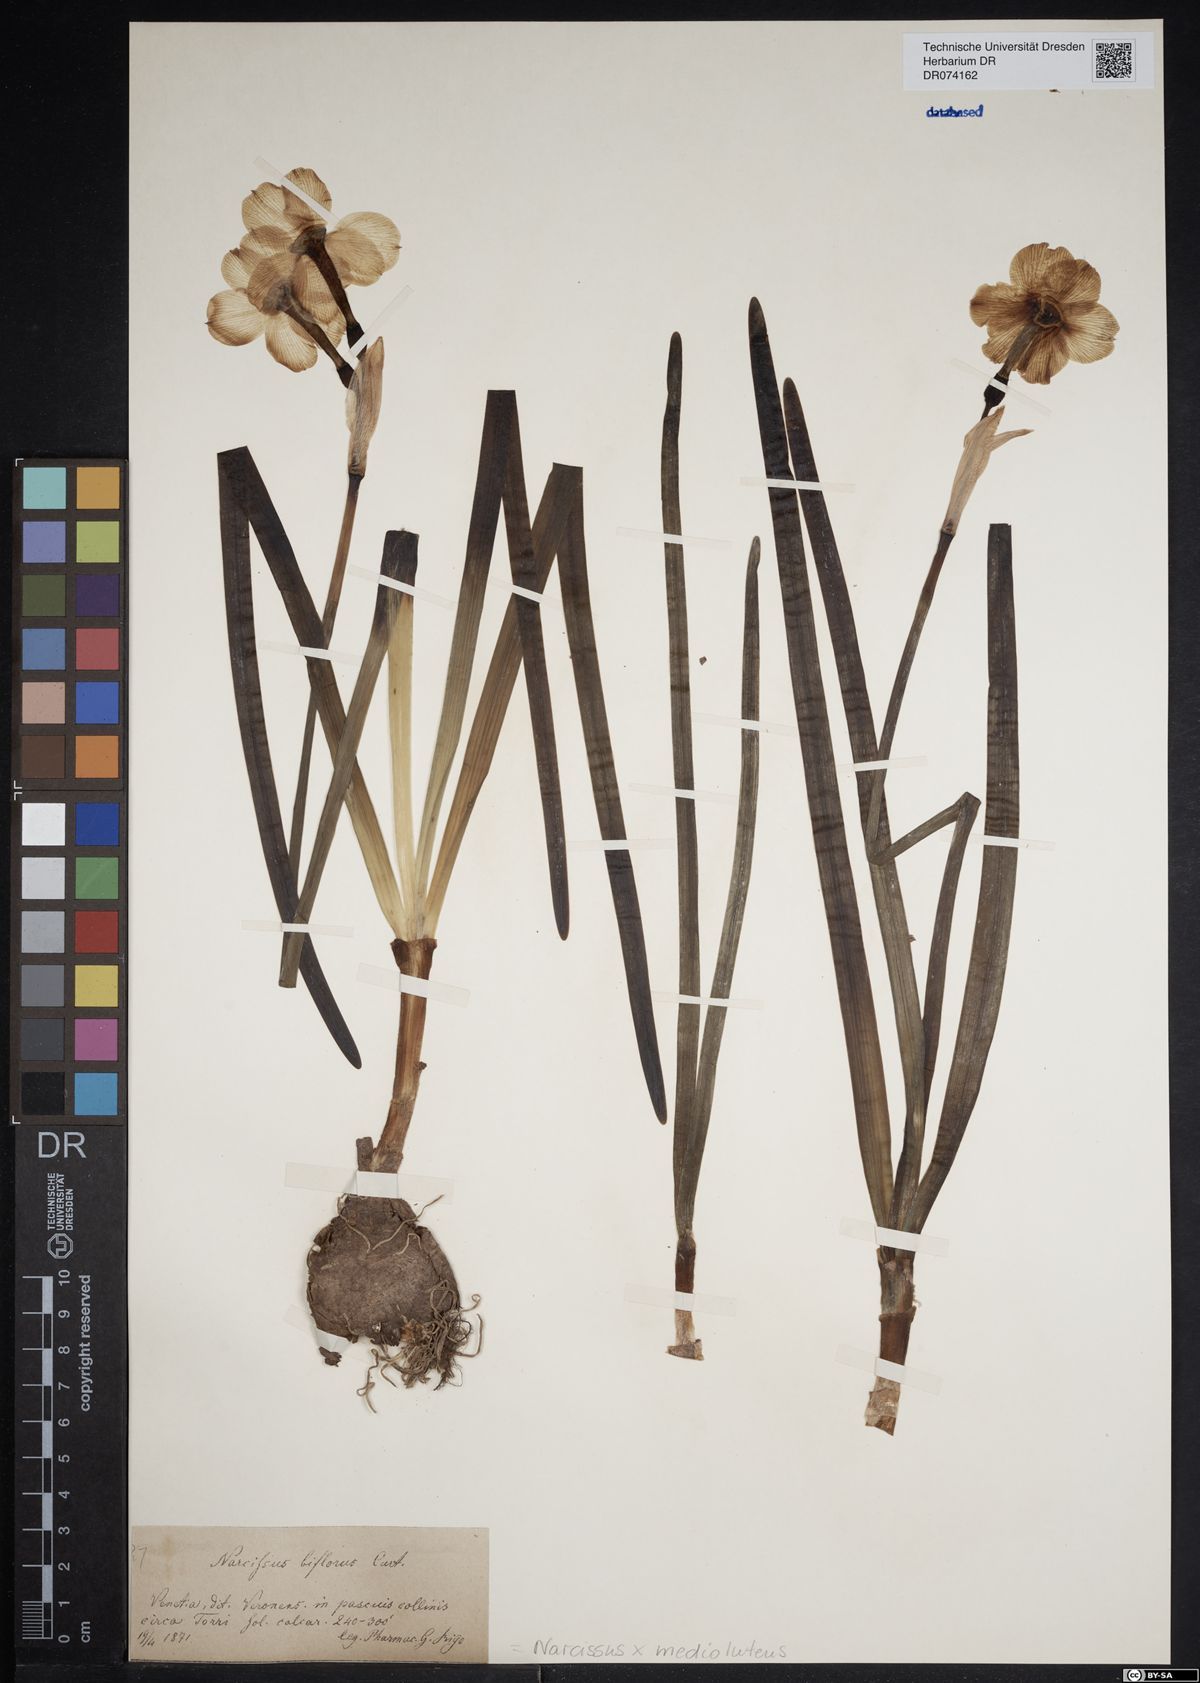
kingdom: Plantae
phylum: Tracheophyta
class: Liliopsida
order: Asparagales
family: Amaryllidaceae
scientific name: Amaryllidaceae
